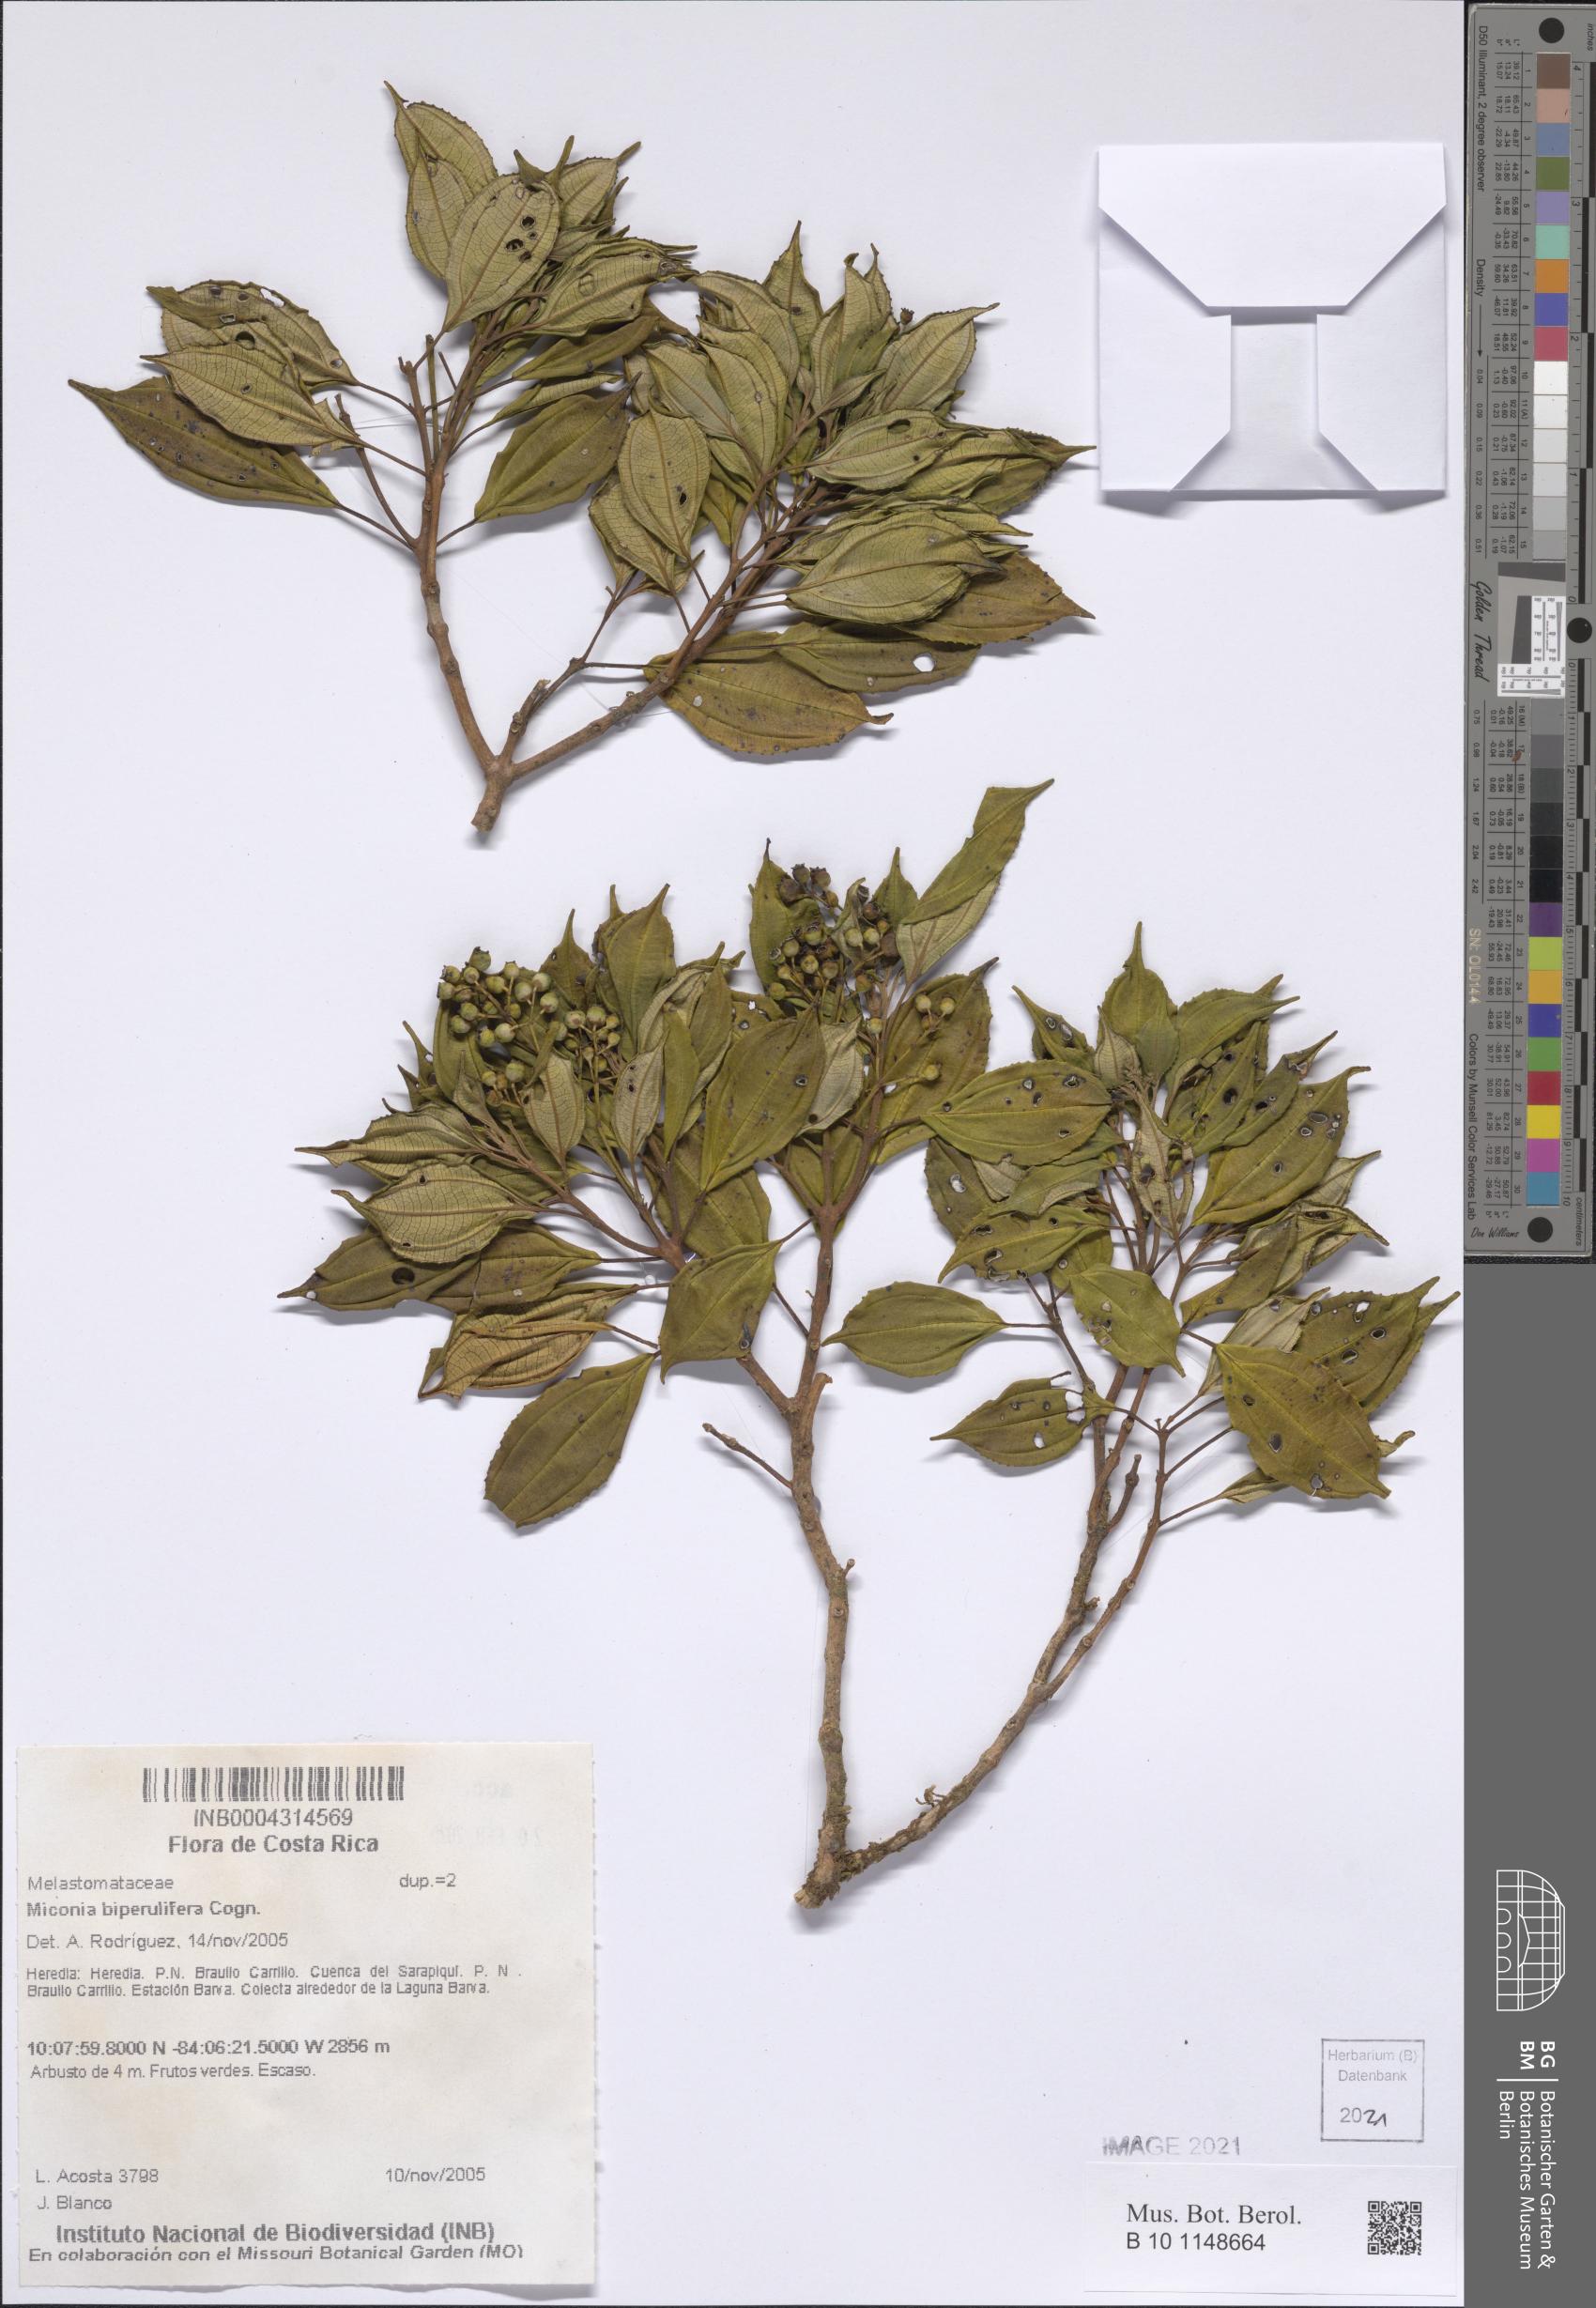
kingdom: Plantae
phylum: Tracheophyta
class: Magnoliopsida
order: Myrtales
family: Melastomataceae
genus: Miconia
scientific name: Miconia biperulifera
